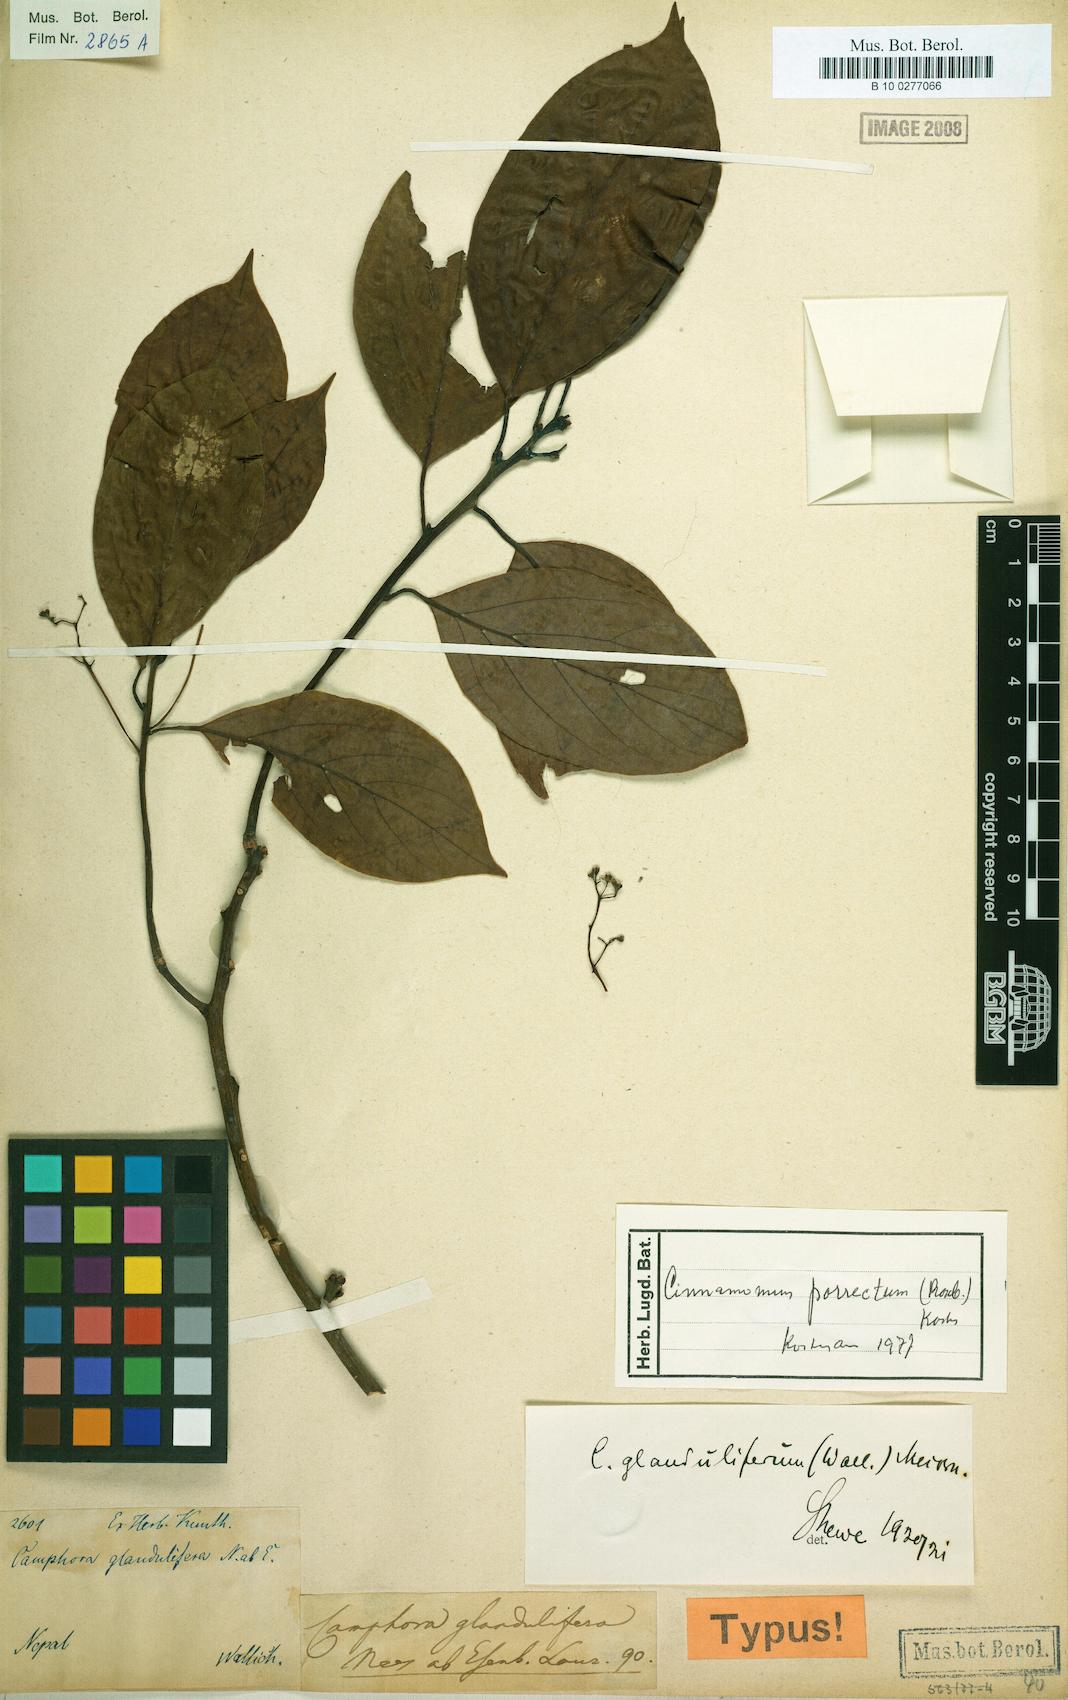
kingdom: Plantae
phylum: Tracheophyta
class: Magnoliopsida
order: Laurales
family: Lauraceae
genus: Cinnamomum
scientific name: Cinnamomum parthenoxylon
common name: Martaban camphor wood
